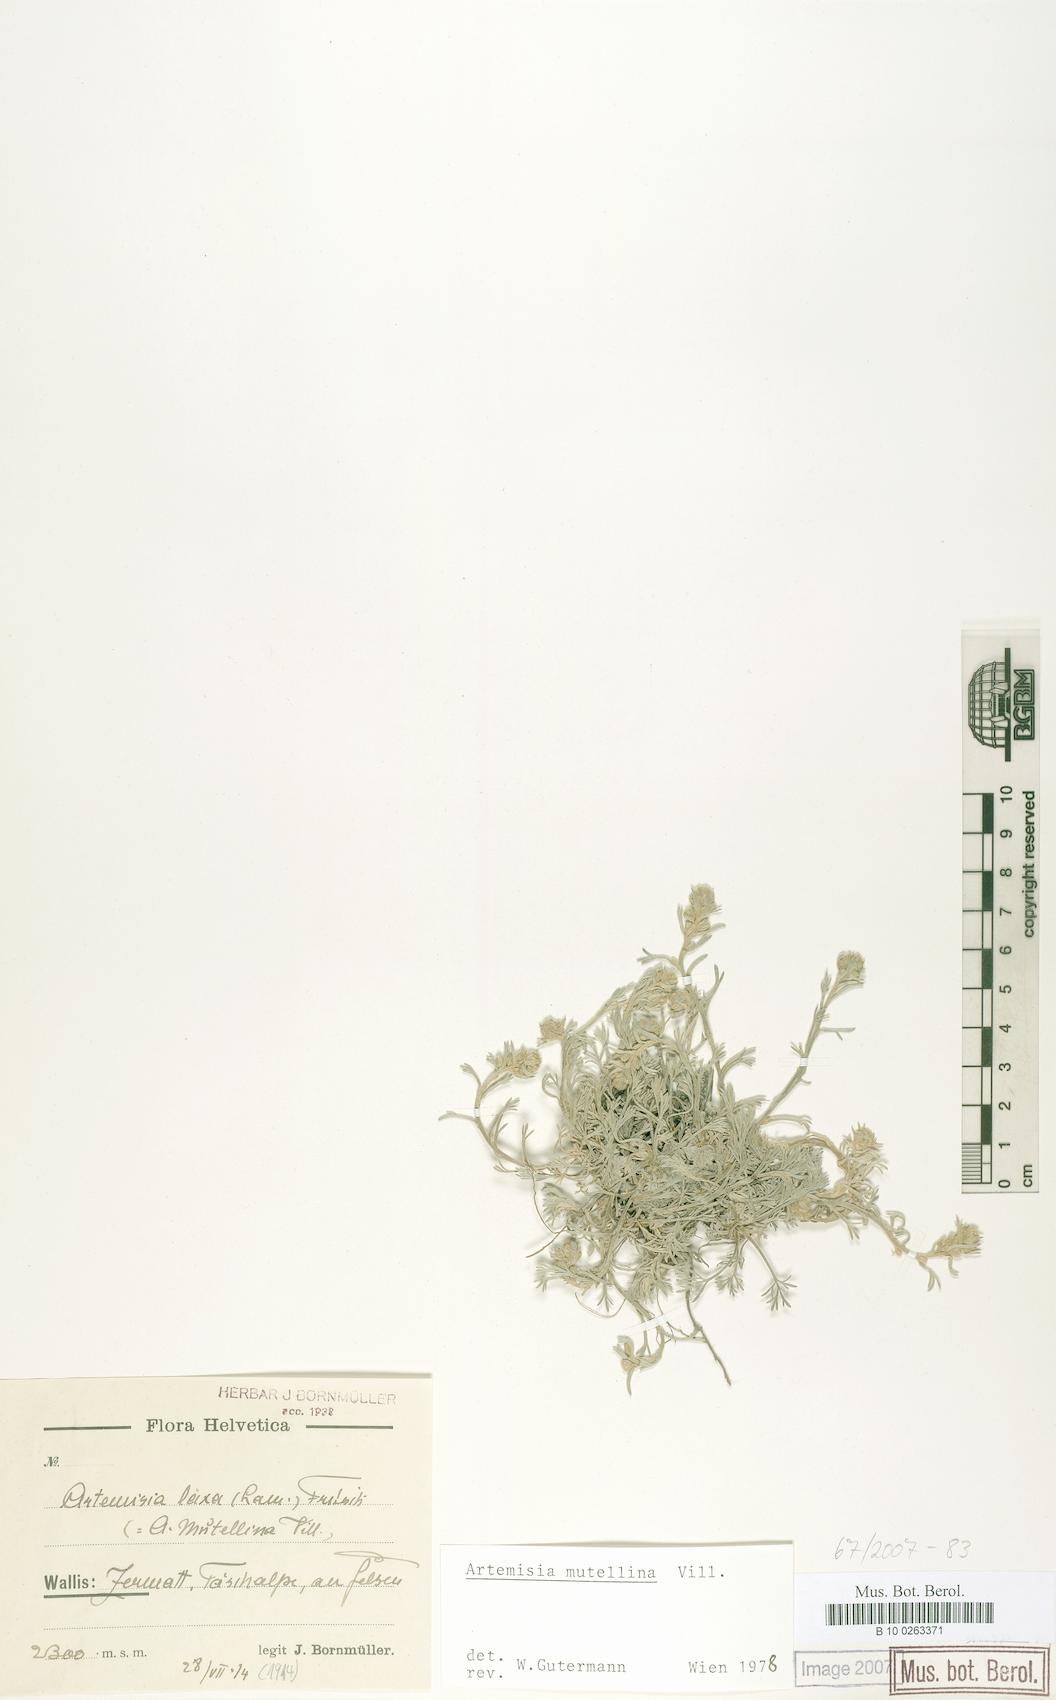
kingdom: Plantae
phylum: Tracheophyta
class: Magnoliopsida
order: Asterales
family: Asteraceae
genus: Artemisia
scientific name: Artemisia mutellina
